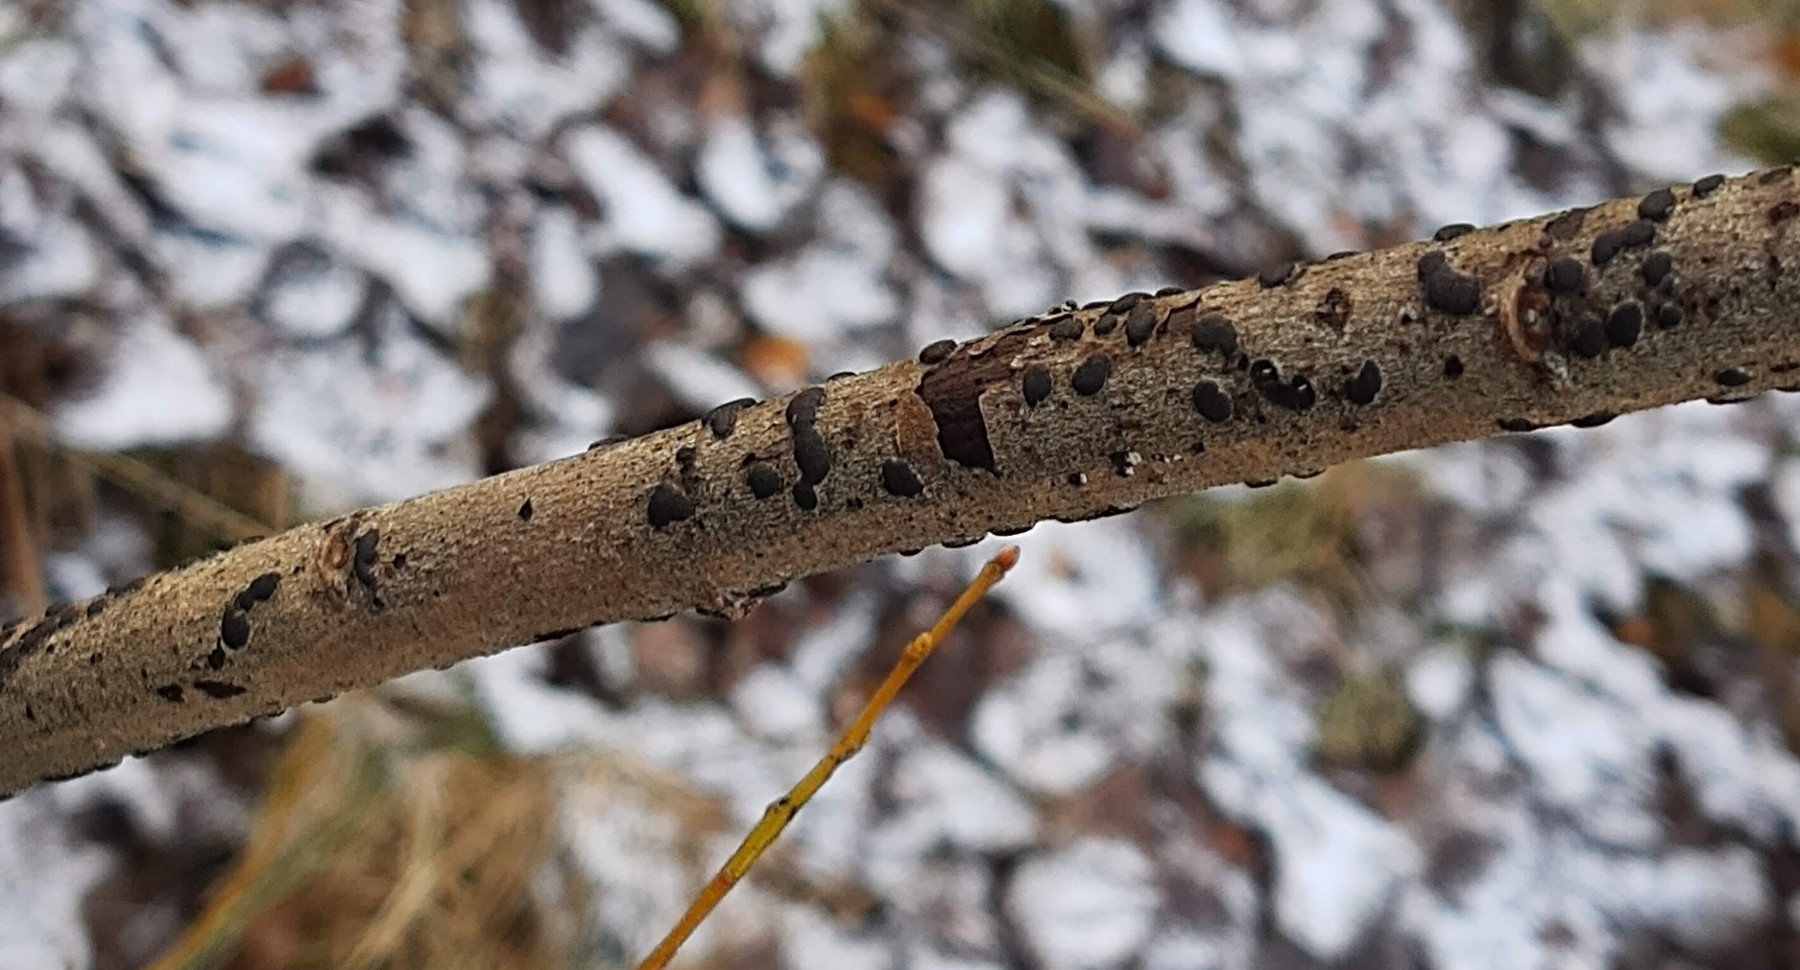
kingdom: Fungi
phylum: Ascomycota
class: Sordariomycetes
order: Xylariales
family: Diatrypaceae
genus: Diatrype
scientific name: Diatrype bullata
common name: pile-kulskorpe
